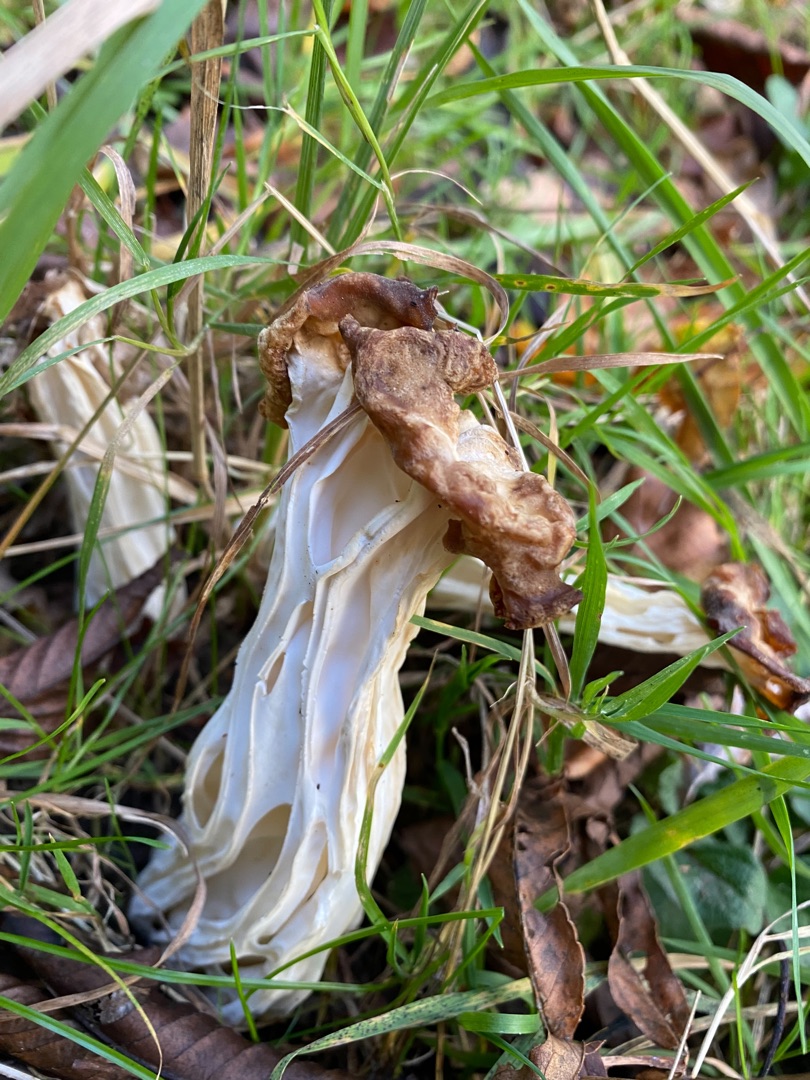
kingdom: Fungi
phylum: Ascomycota
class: Pezizomycetes
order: Pezizales
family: Helvellaceae
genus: Helvella
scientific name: Helvella crispa
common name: Kruset foldhat
